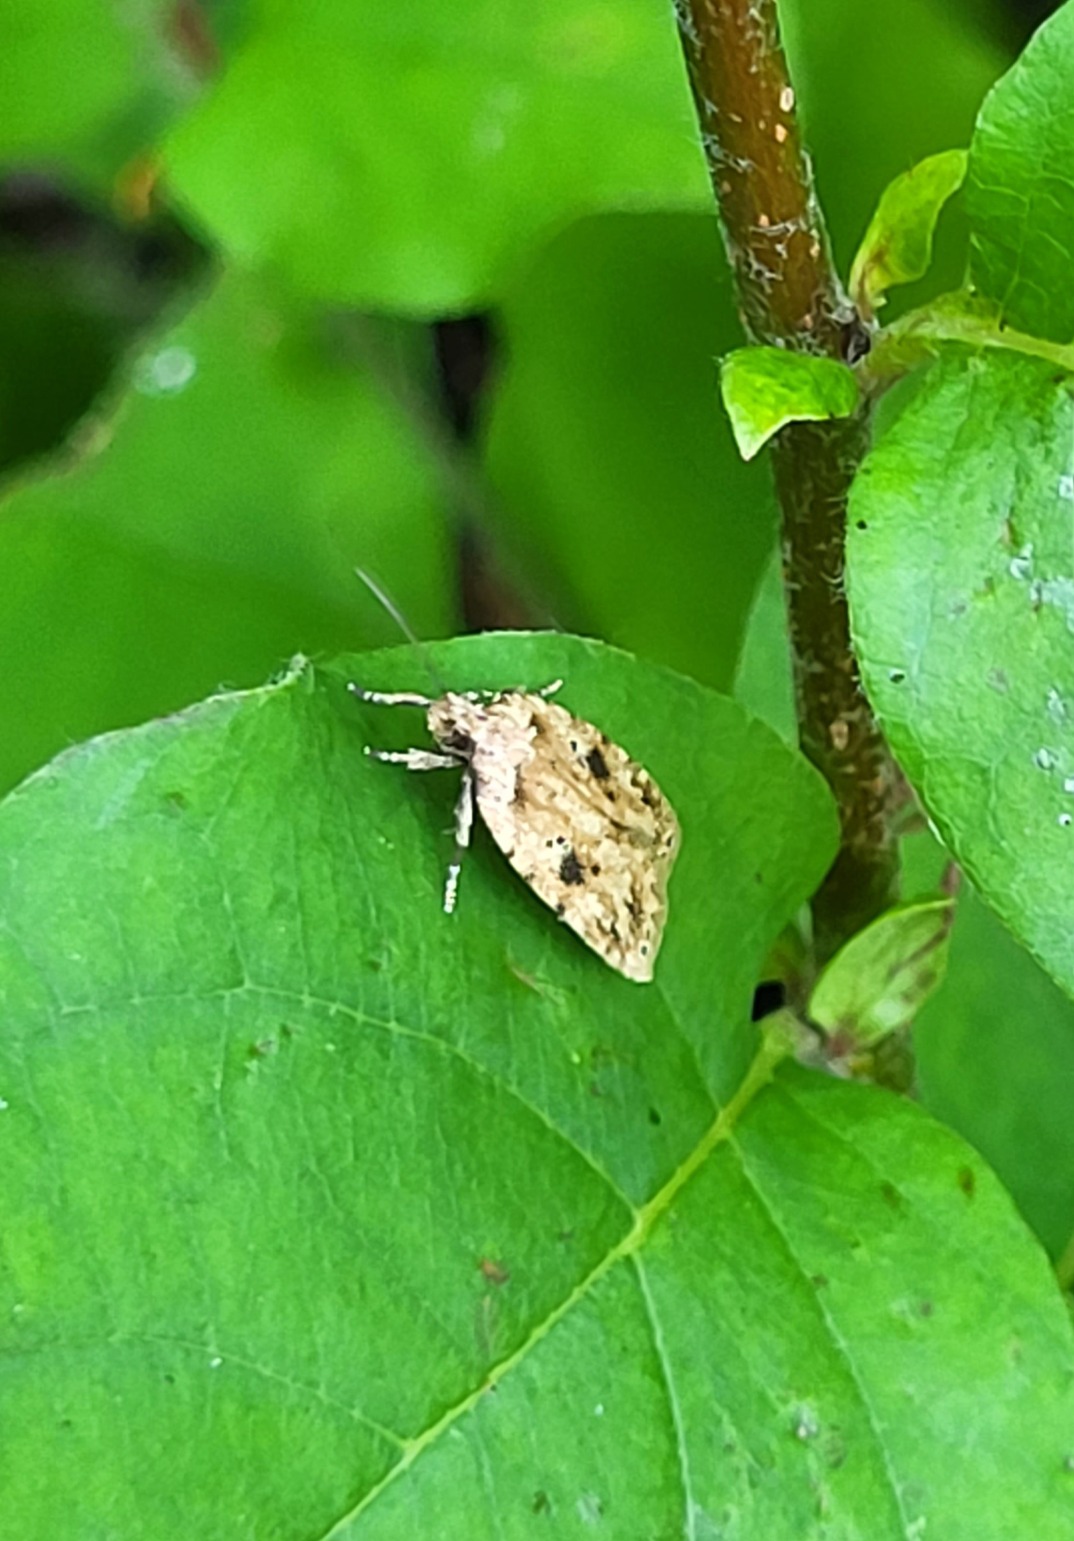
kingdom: Animalia
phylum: Arthropoda
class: Insecta
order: Lepidoptera
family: Depressariidae
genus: Agonopterix
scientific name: Agonopterix arenella
